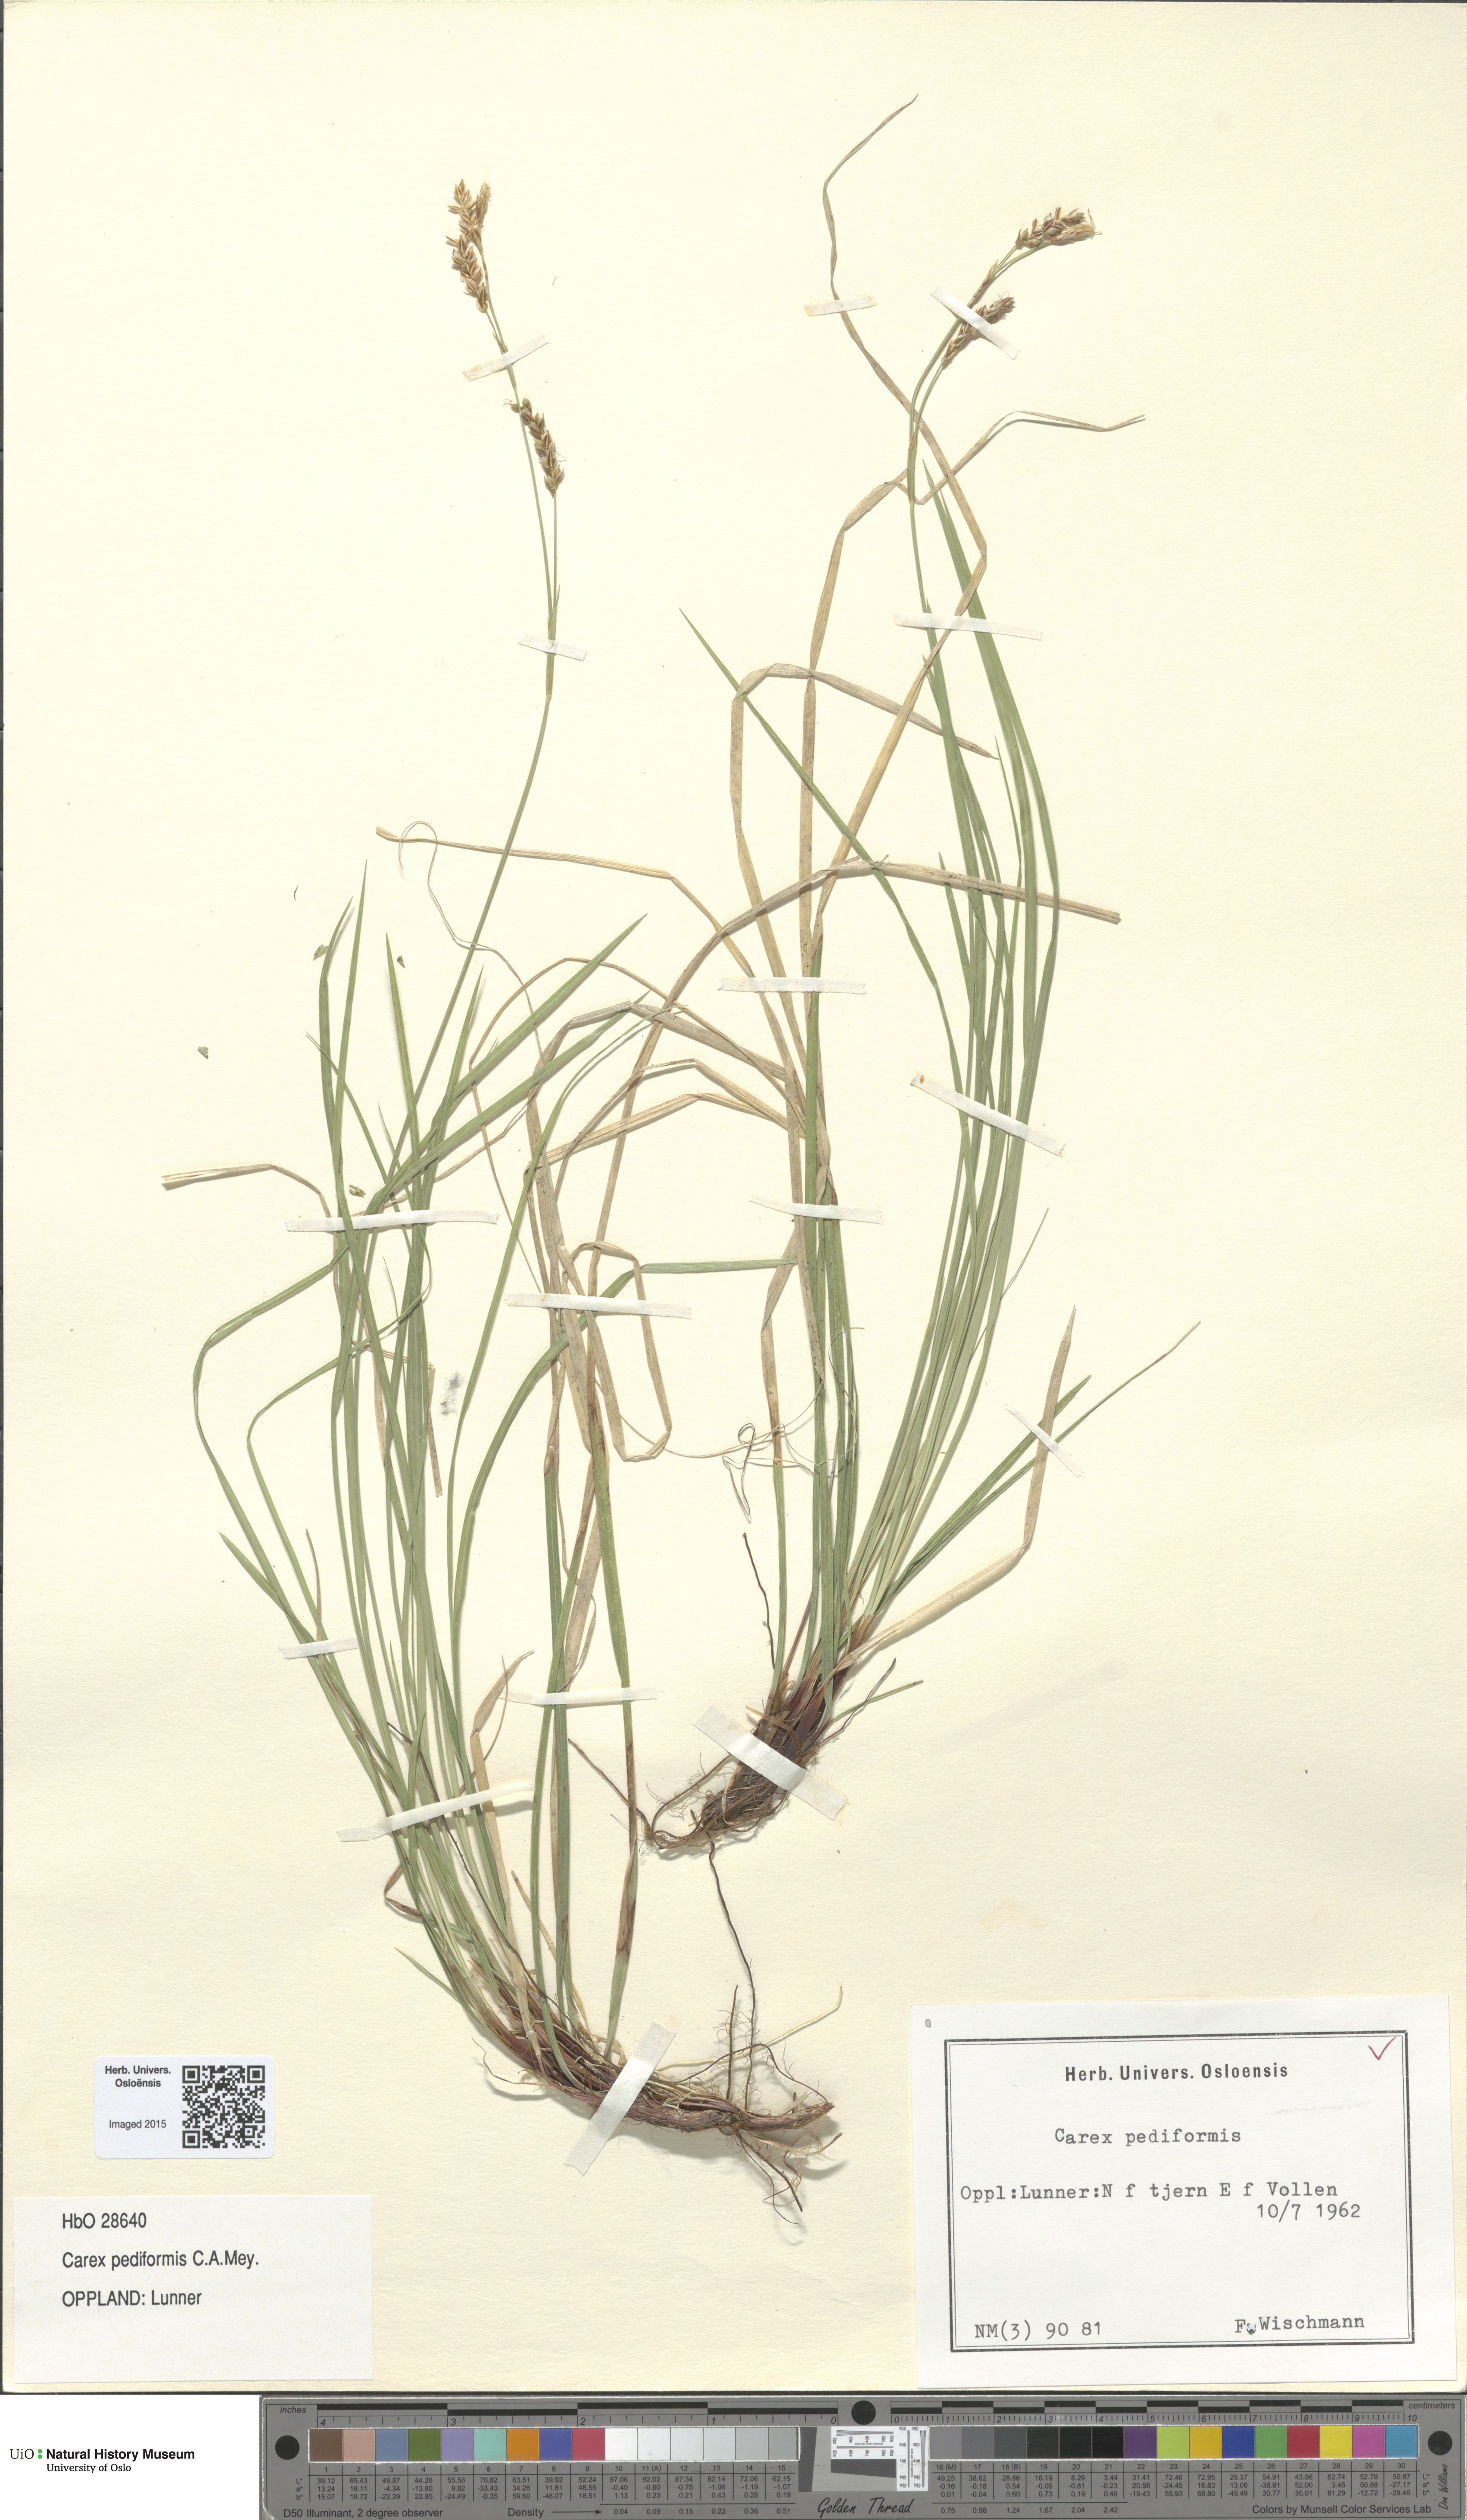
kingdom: Plantae
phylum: Tracheophyta
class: Liliopsida
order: Poales
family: Cyperaceae
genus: Carex
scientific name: Carex rhizina
